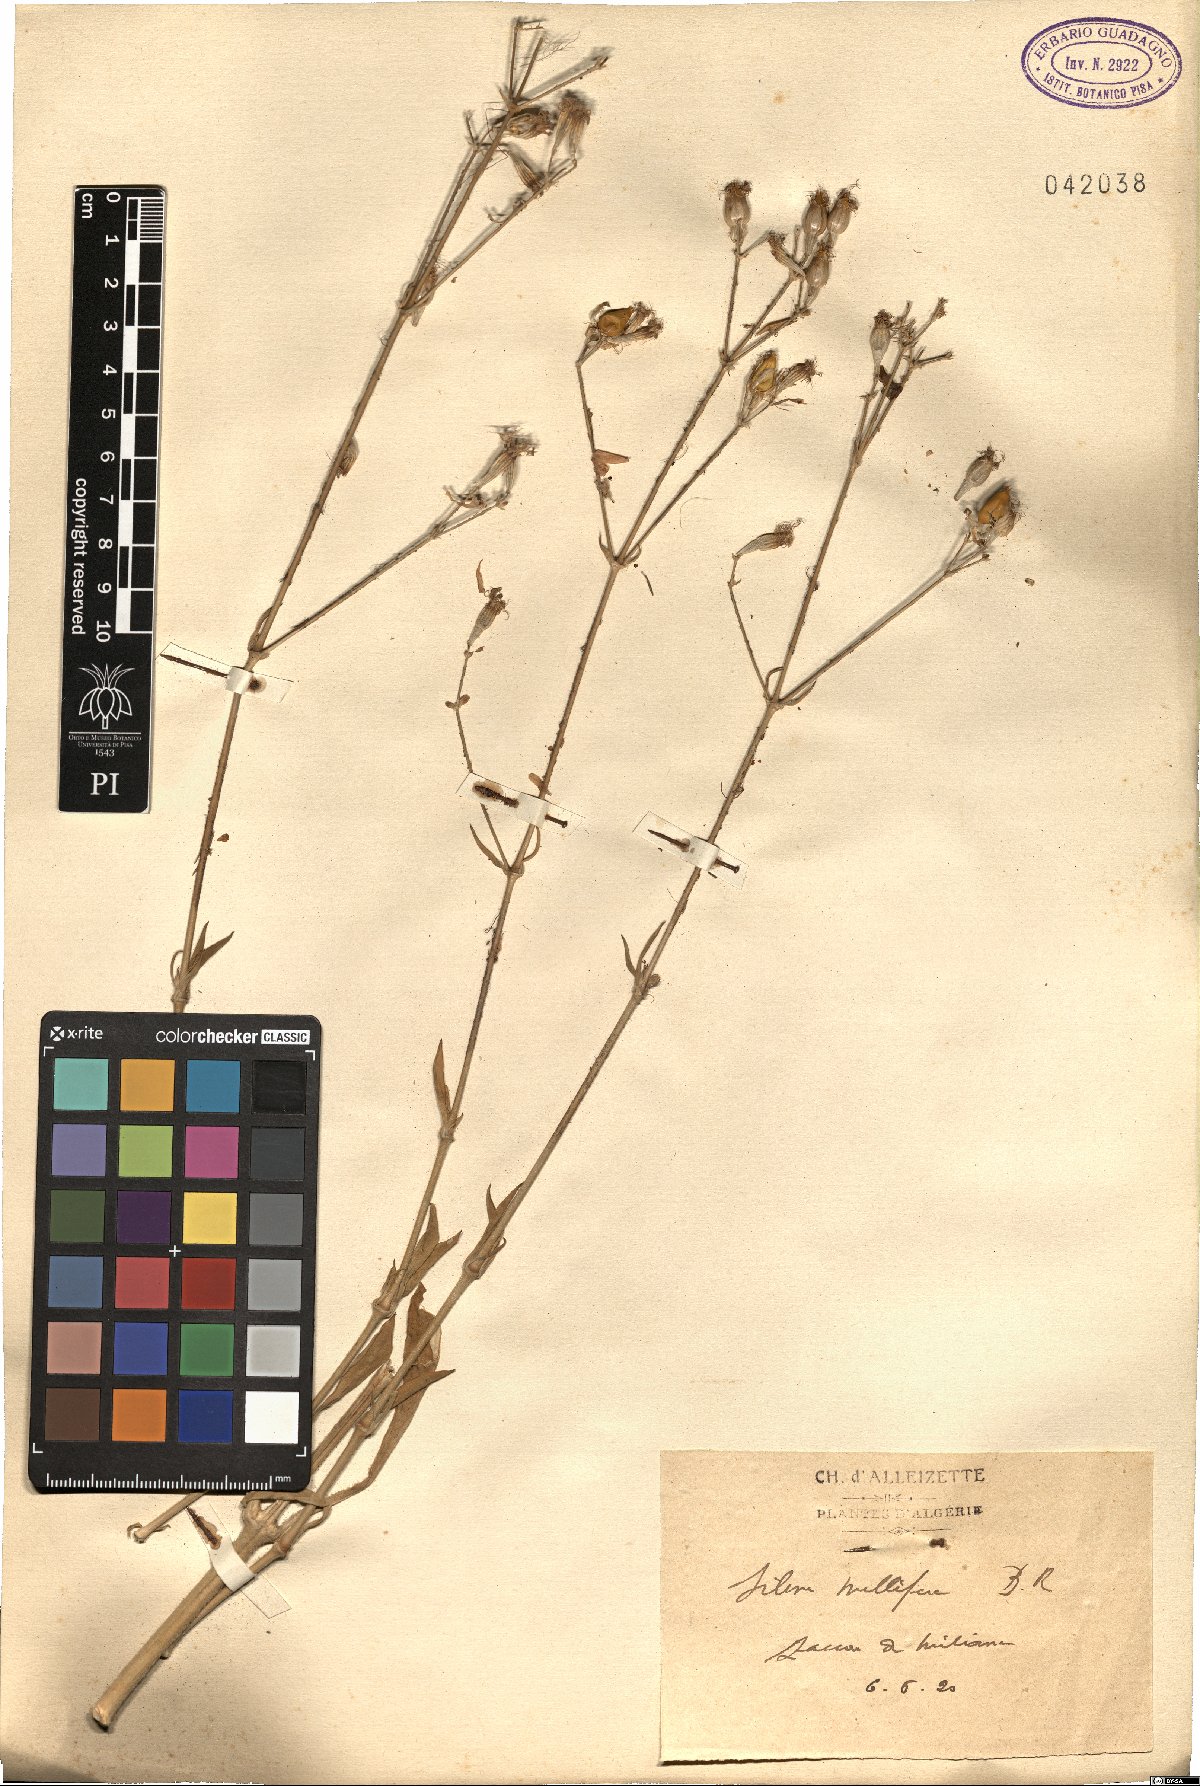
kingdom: Plantae
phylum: Tracheophyta
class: Magnoliopsida
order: Caryophyllales
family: Caryophyllaceae
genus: Silene
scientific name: Silene mellifera
